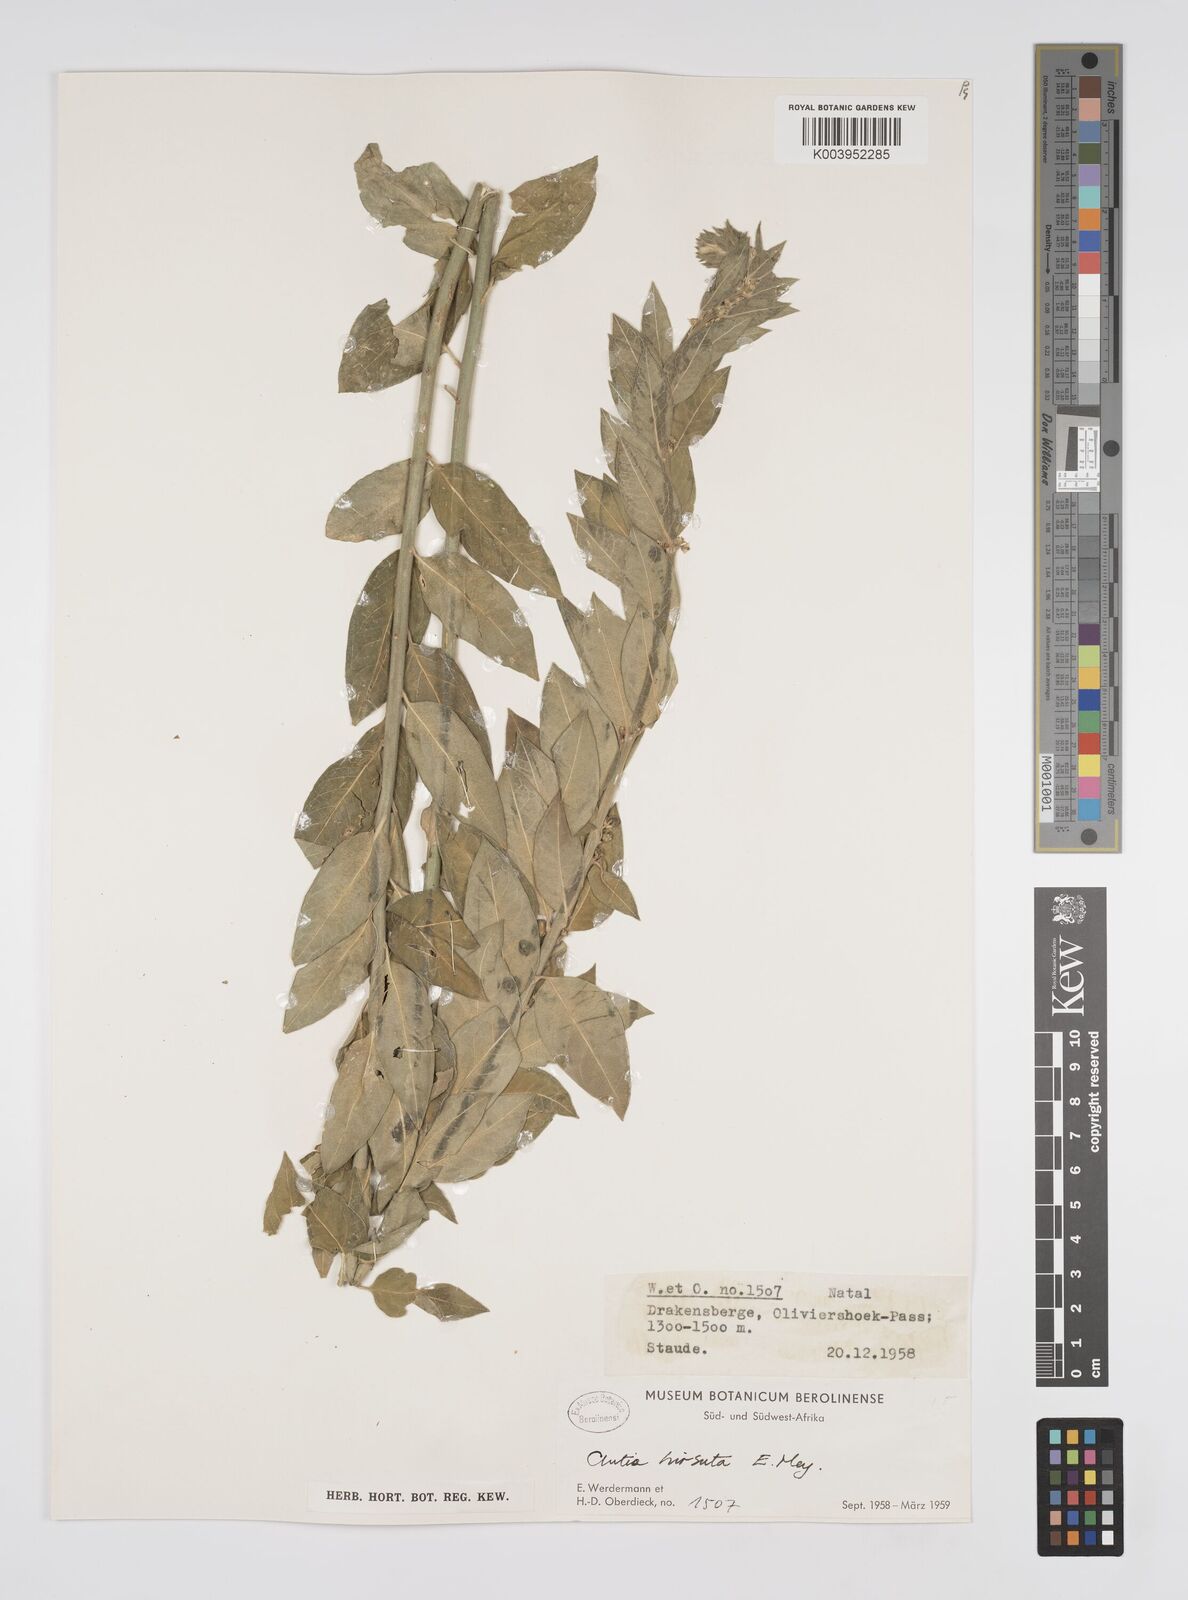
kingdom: Plantae
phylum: Tracheophyta
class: Magnoliopsida
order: Malpighiales
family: Peraceae
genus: Clutia
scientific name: Clutia affinis
